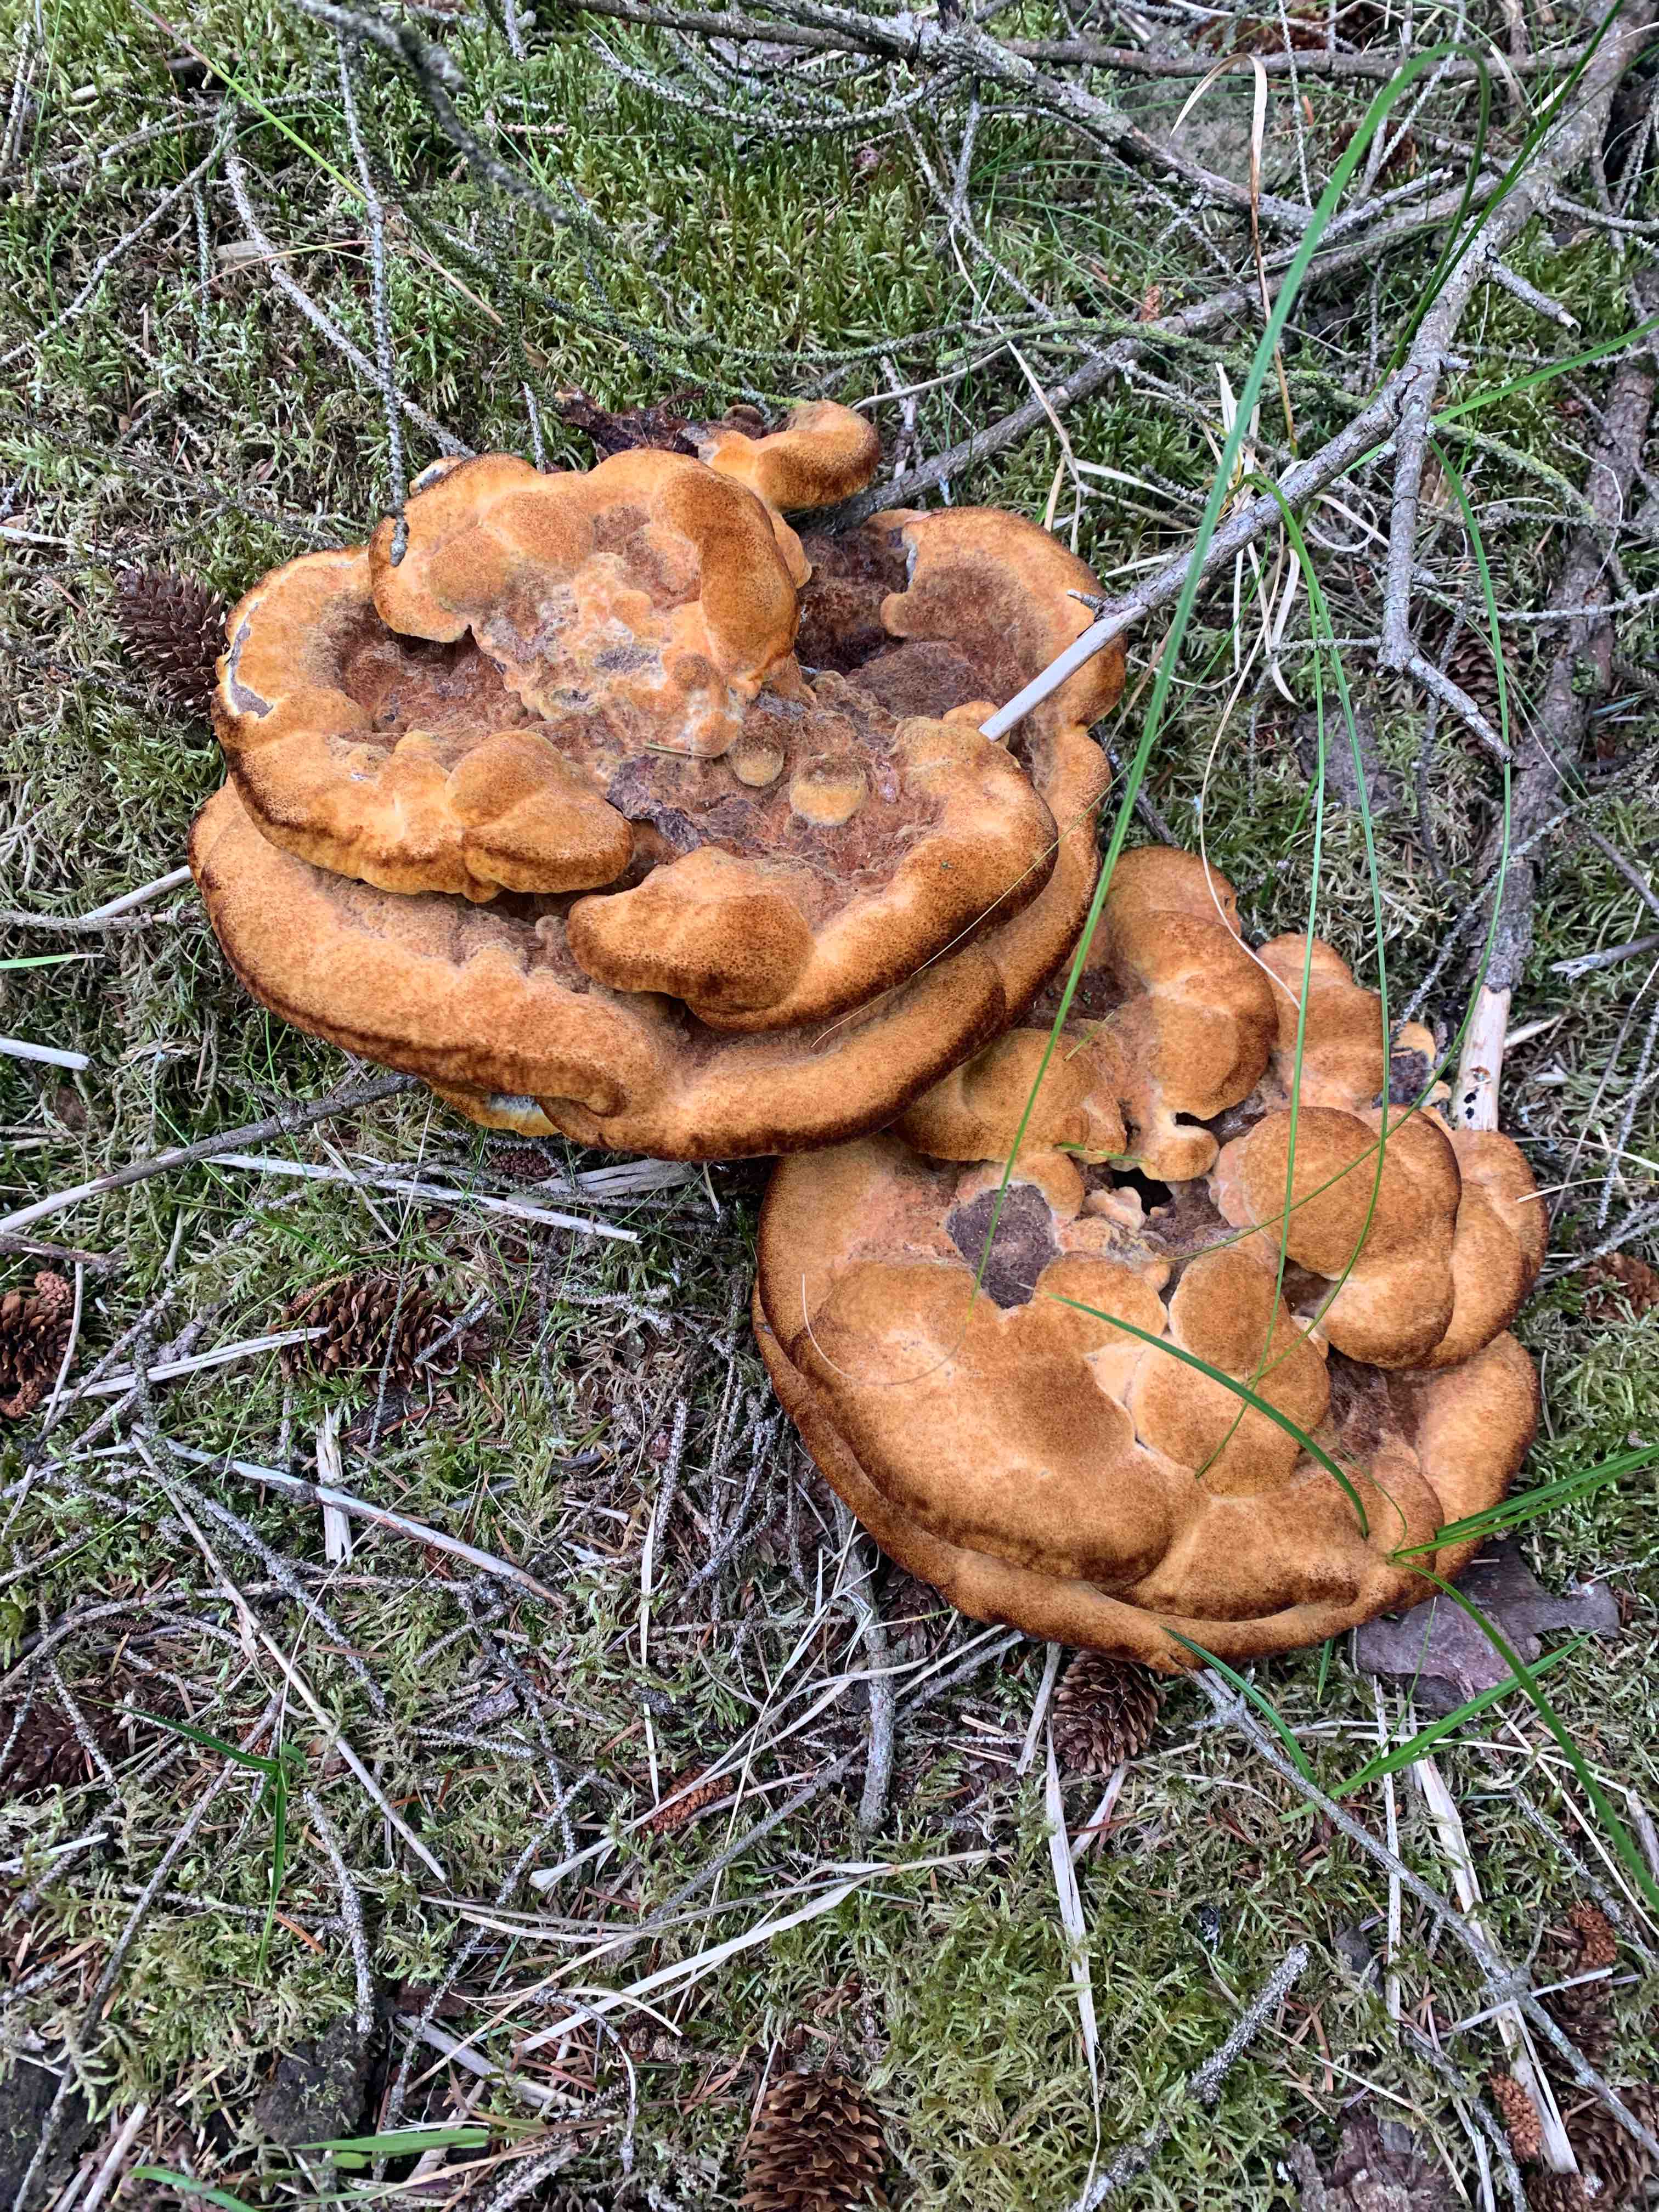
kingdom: Fungi
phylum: Basidiomycota
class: Agaricomycetes
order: Polyporales
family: Laetiporaceae
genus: Phaeolus
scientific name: Phaeolus schweinitzii
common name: brunporesvamp
